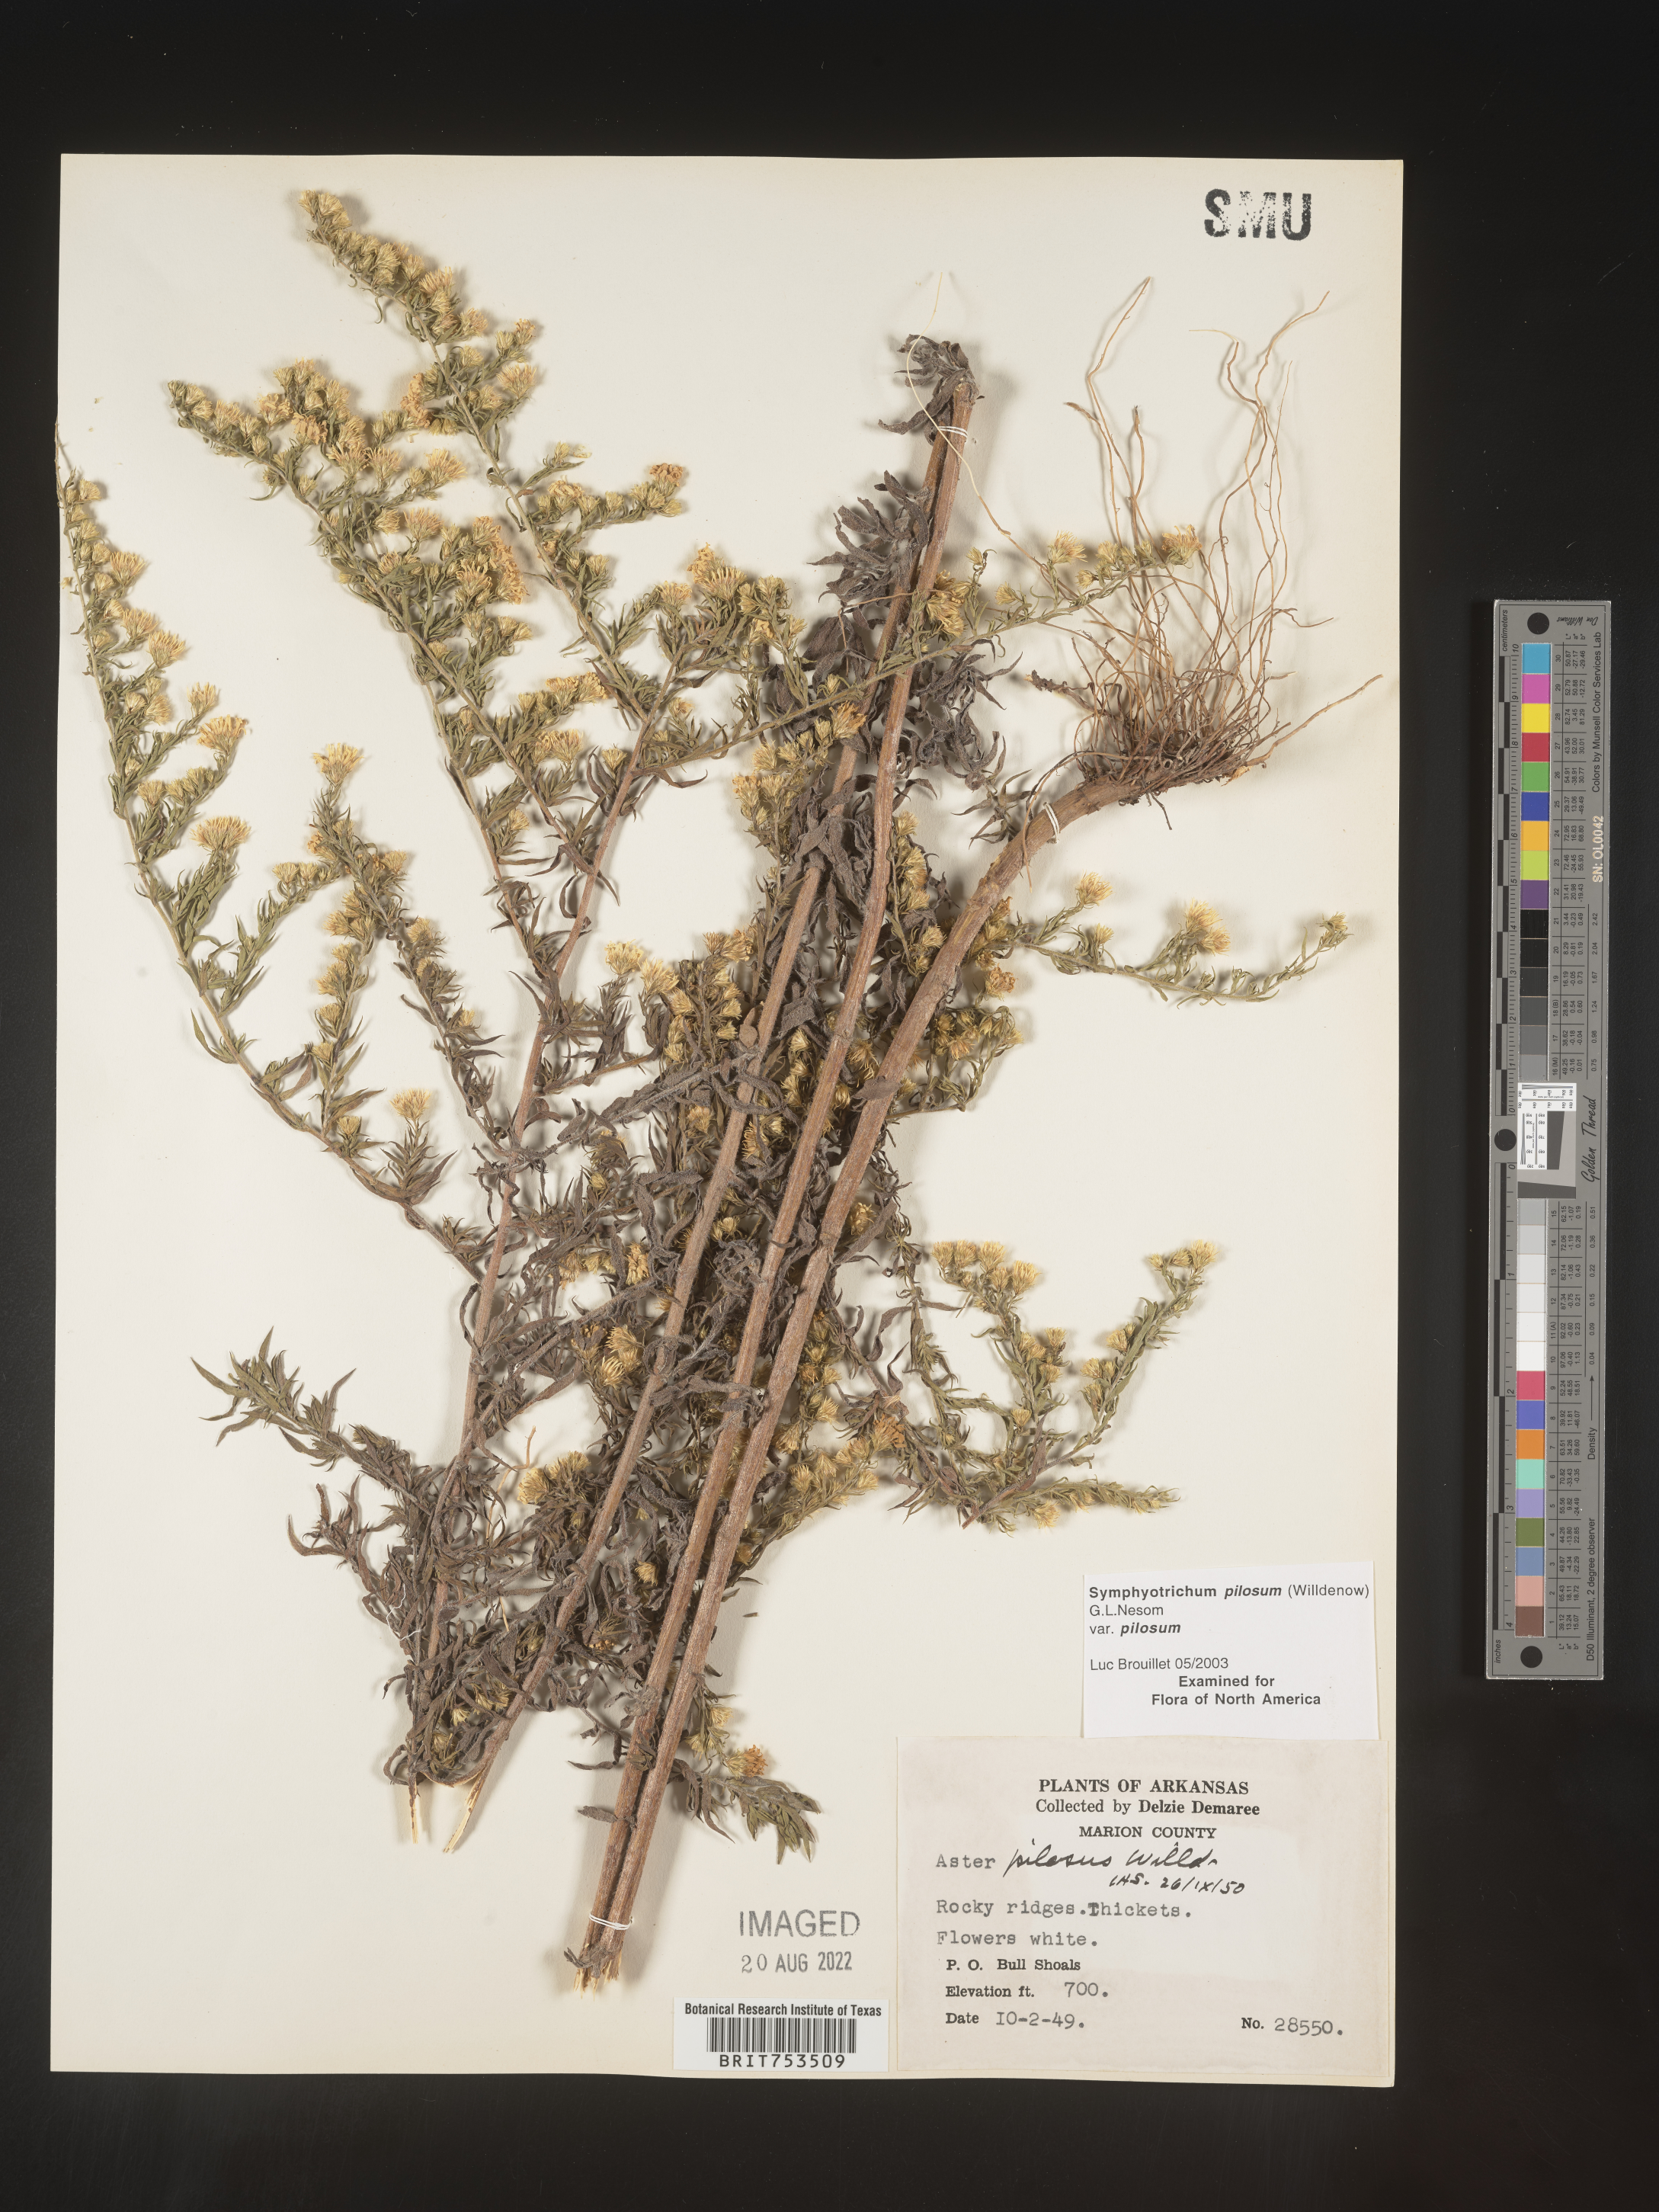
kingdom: Plantae
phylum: Tracheophyta
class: Magnoliopsida
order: Asterales
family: Asteraceae
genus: Symphyotrichum
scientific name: Symphyotrichum pilosum
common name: Awl aster
